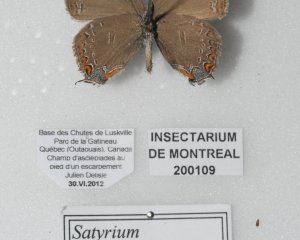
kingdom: Animalia
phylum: Arthropoda
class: Insecta
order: Lepidoptera
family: Lycaenidae
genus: Satyrium
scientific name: Satyrium calanus
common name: Banded Hairstreak
